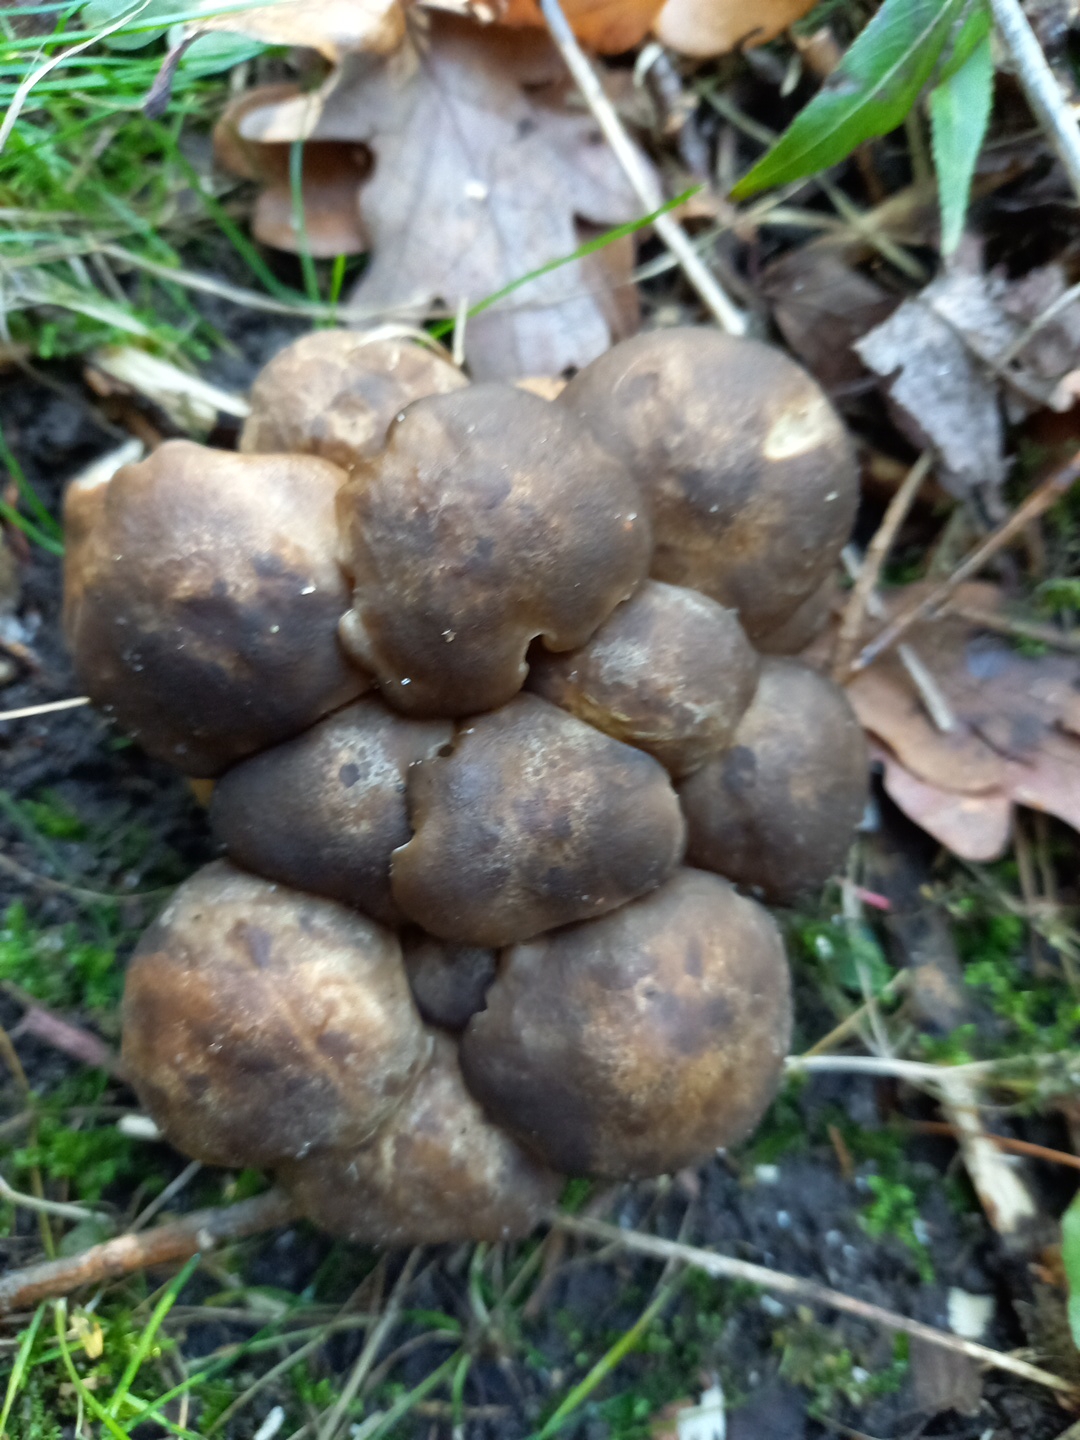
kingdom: Fungi
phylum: Basidiomycota
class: Agaricomycetes
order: Agaricales
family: Lyophyllaceae
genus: Lyophyllum
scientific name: Lyophyllum decastes
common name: røggrå gråblad
